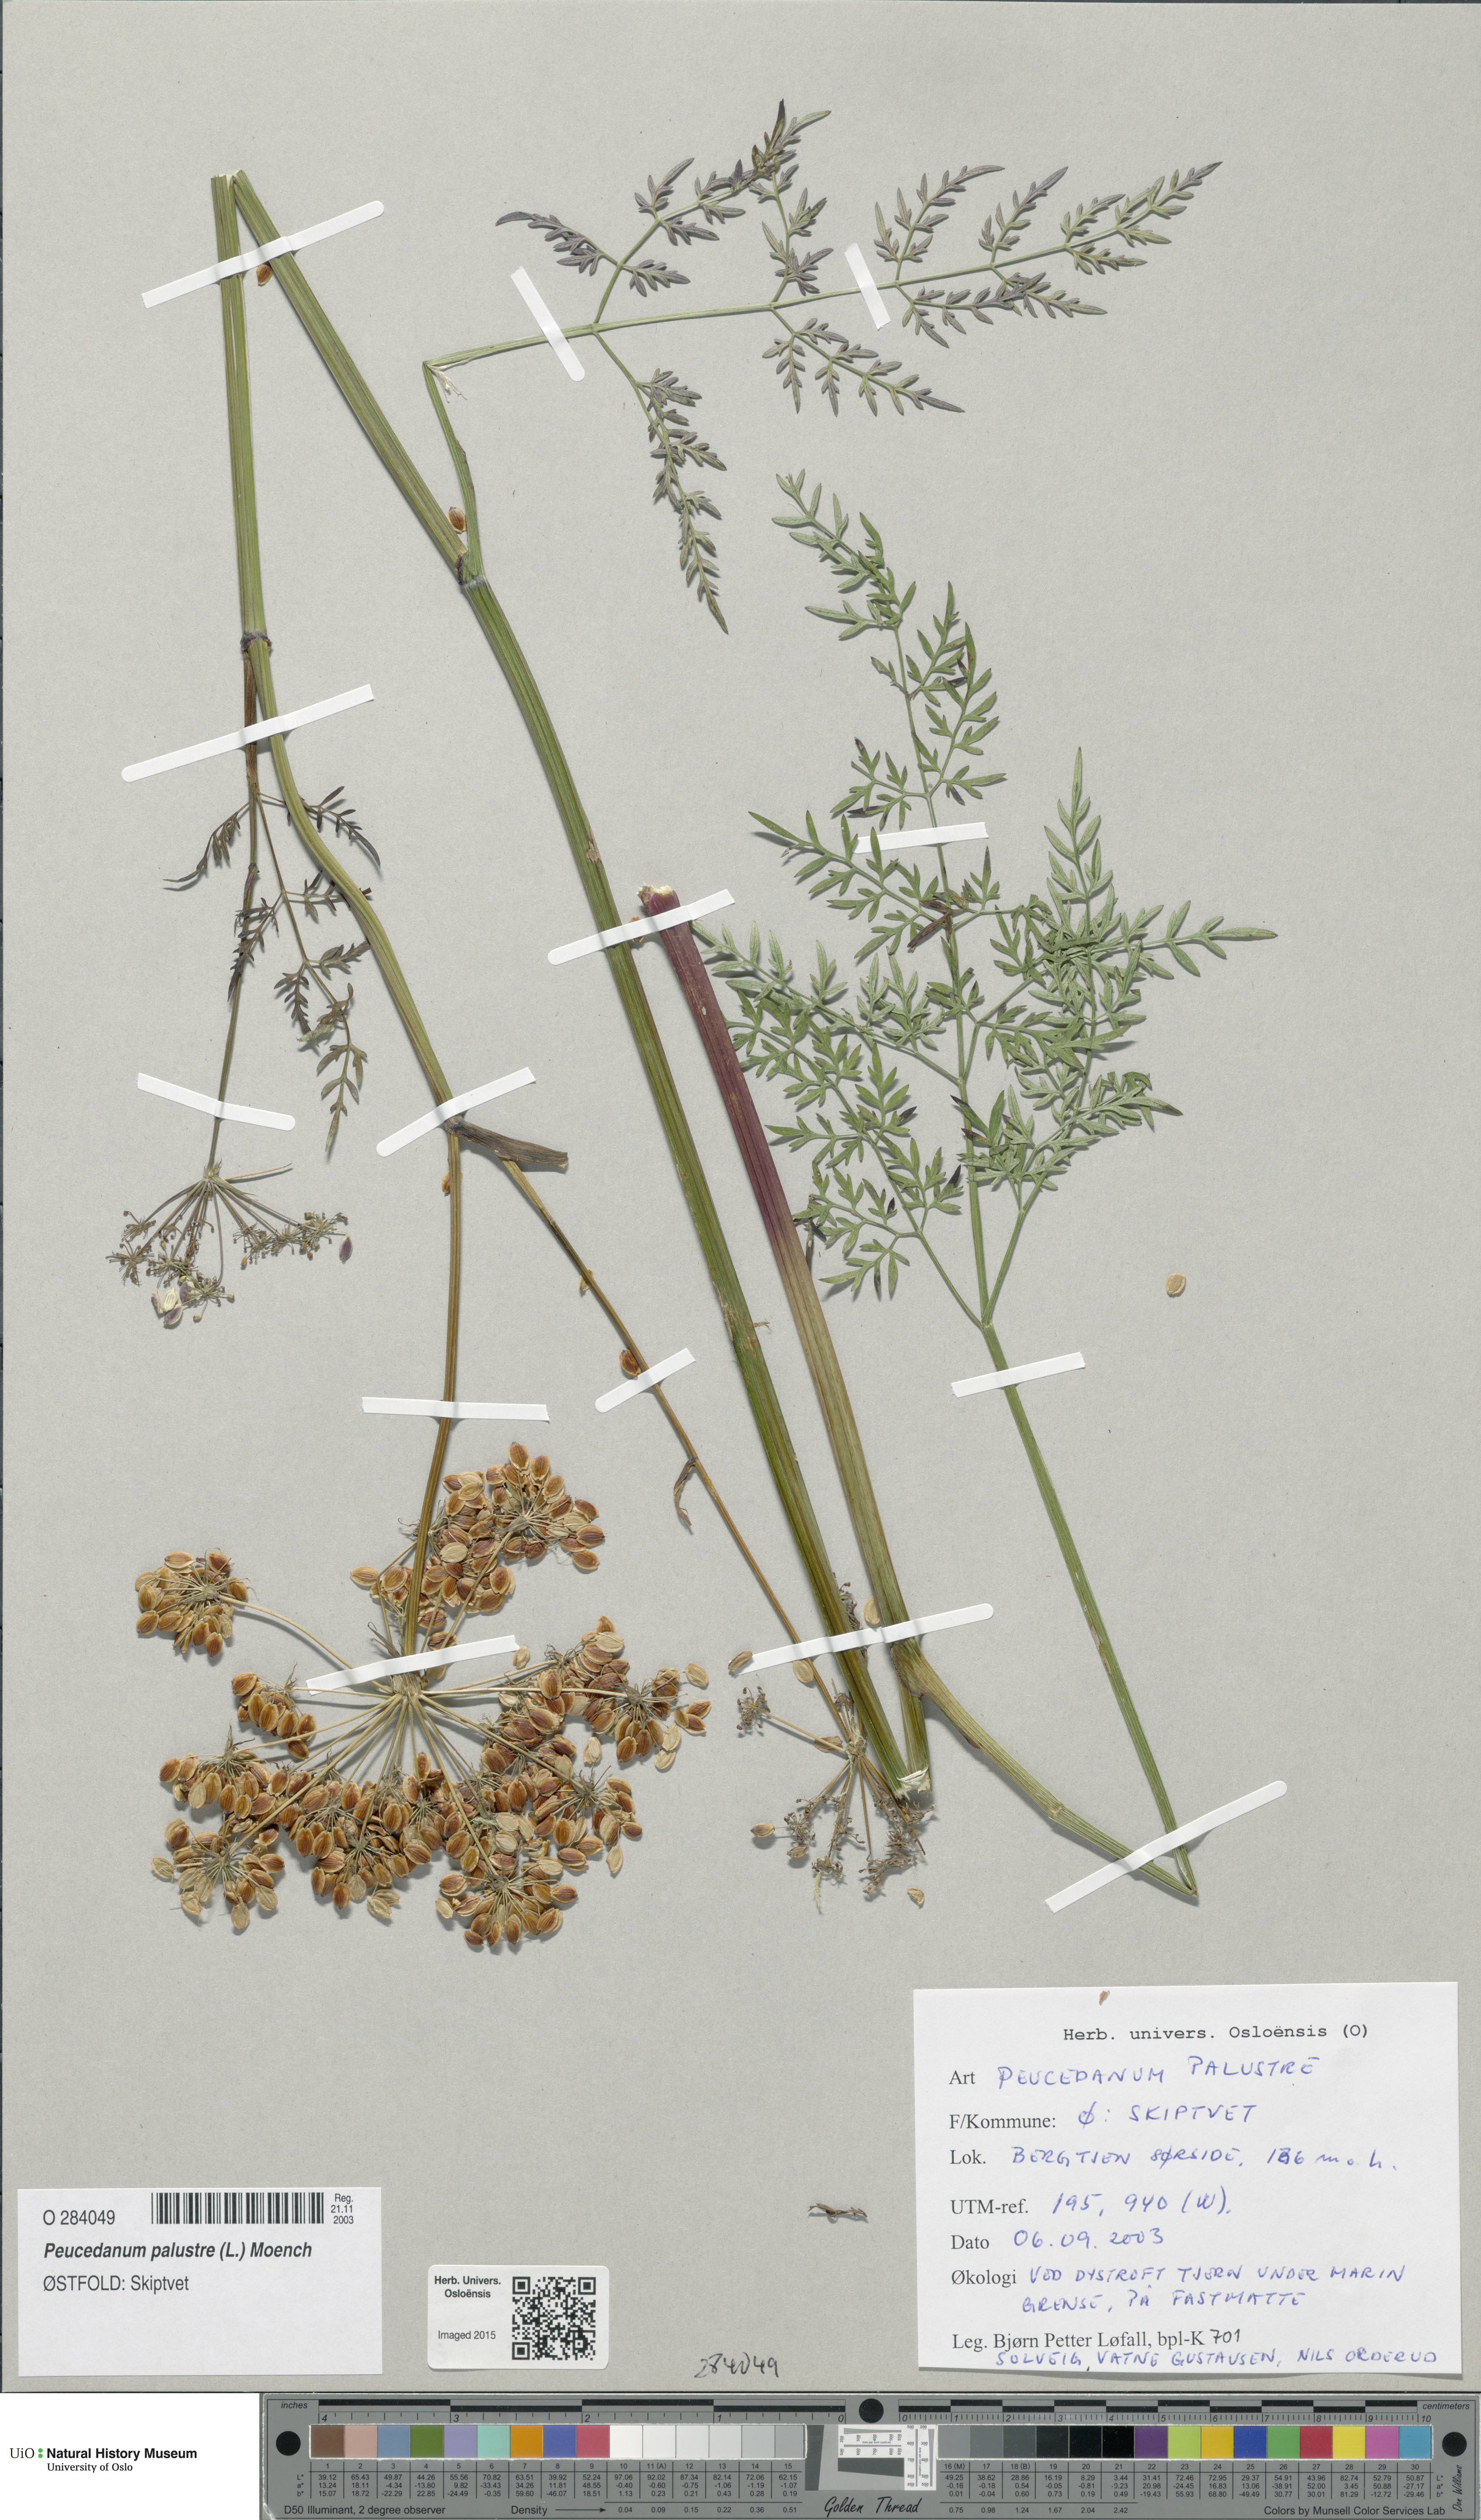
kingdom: Plantae
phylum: Tracheophyta
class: Magnoliopsida
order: Apiales
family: Apiaceae
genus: Thysselinum
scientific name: Thysselinum palustre
